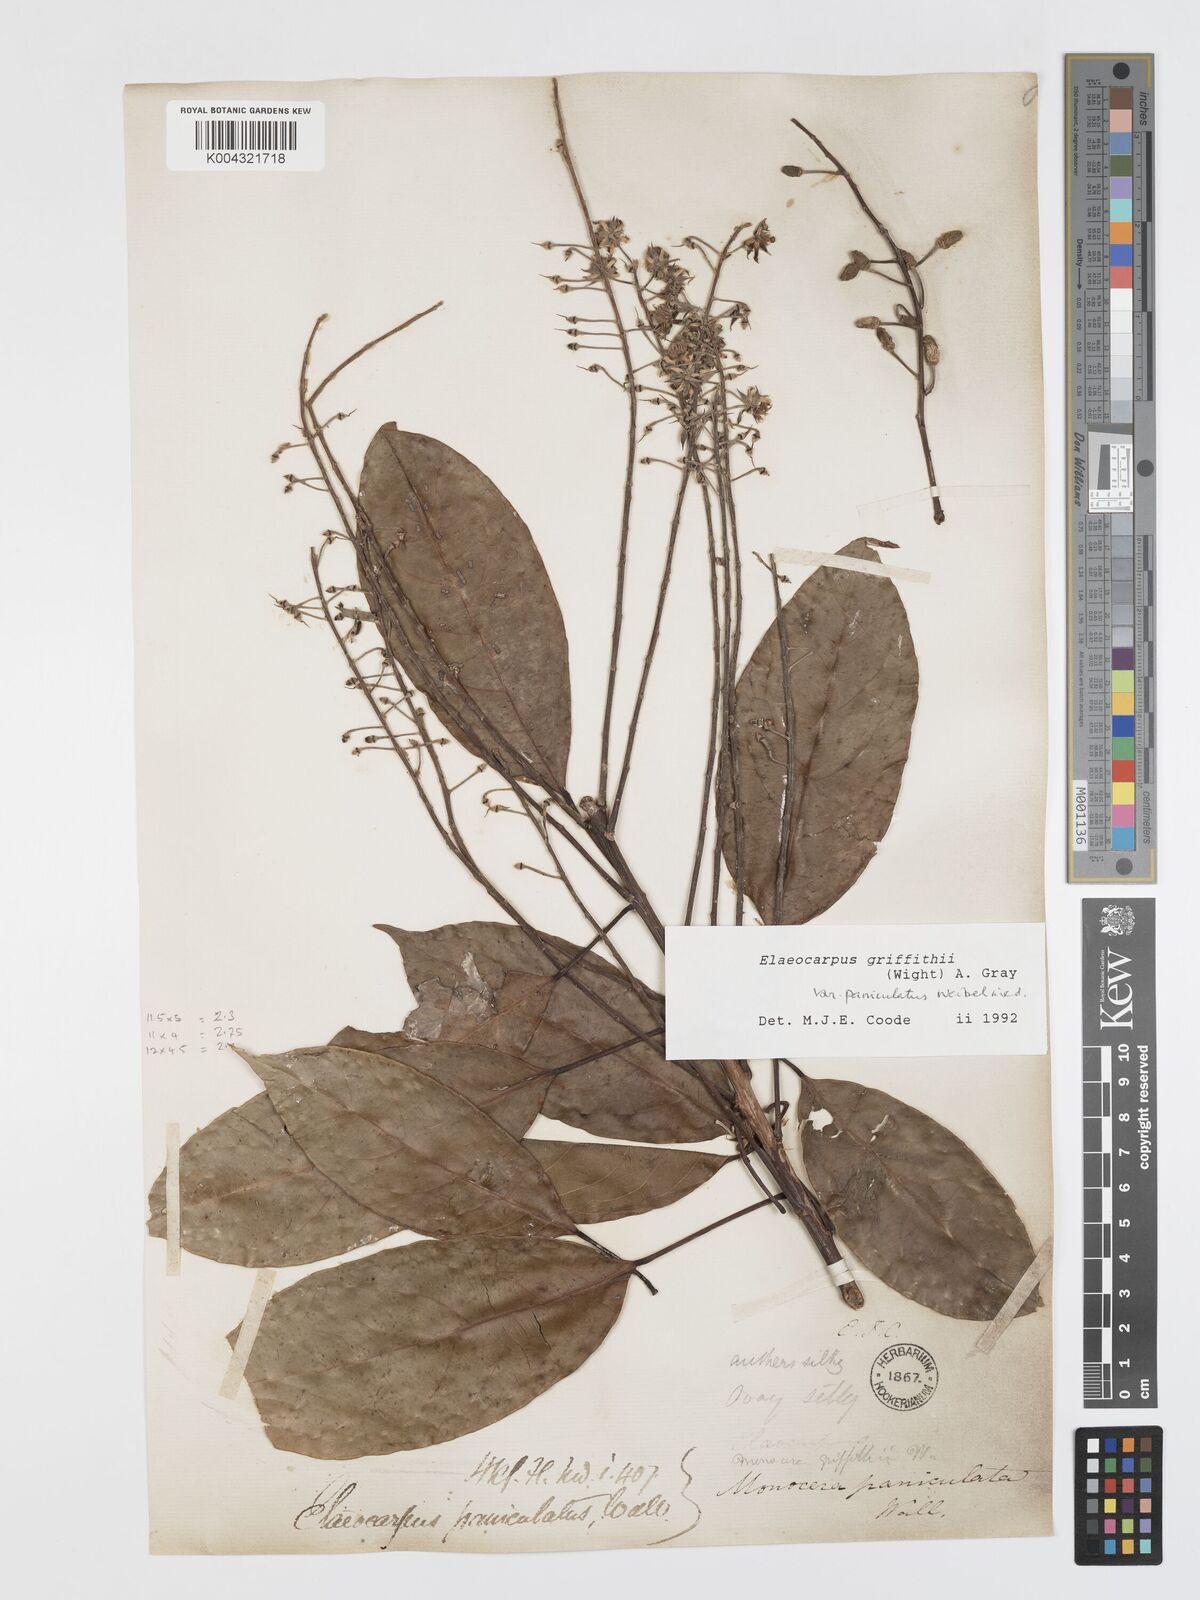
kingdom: Plantae
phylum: Tracheophyta
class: Magnoliopsida
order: Oxalidales
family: Elaeocarpaceae
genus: Elaeocarpus
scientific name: Elaeocarpus griffithii
